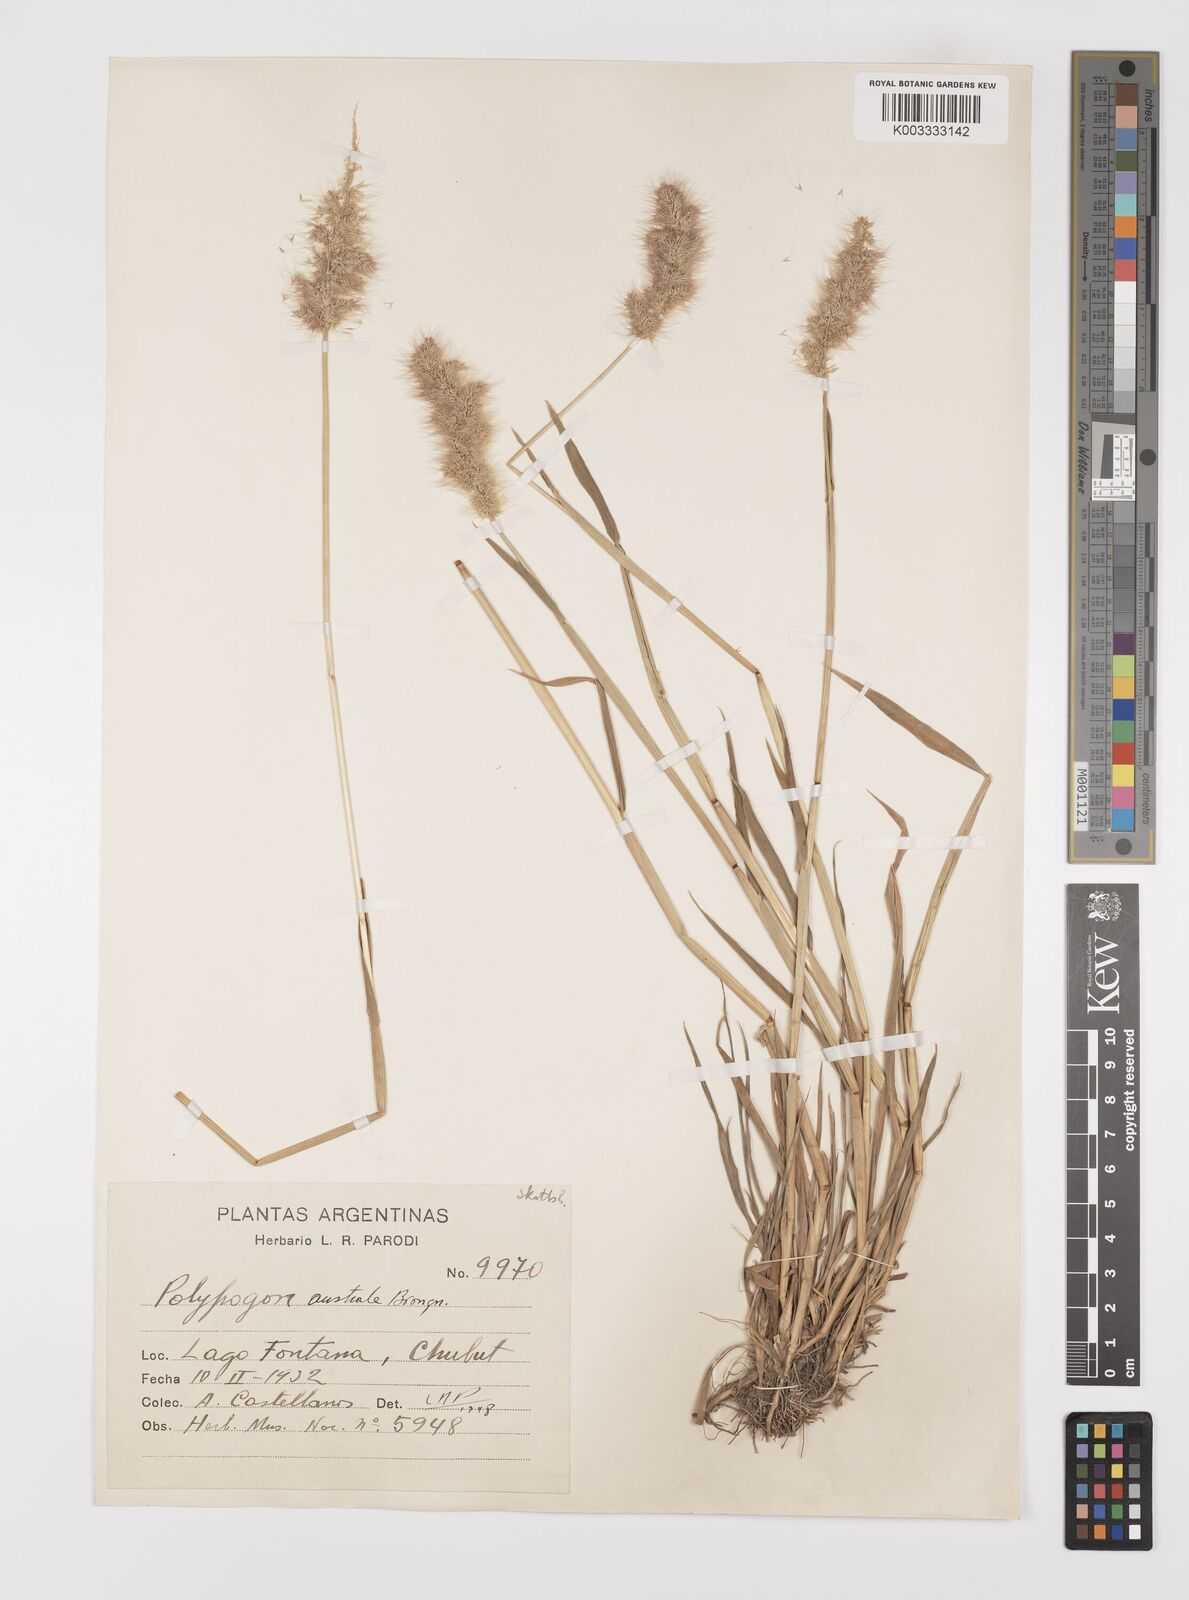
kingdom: Plantae
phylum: Tracheophyta
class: Liliopsida
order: Poales
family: Poaceae
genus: Polypogon
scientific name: Polypogon australis
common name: Chilean rabbitsfoot grass
